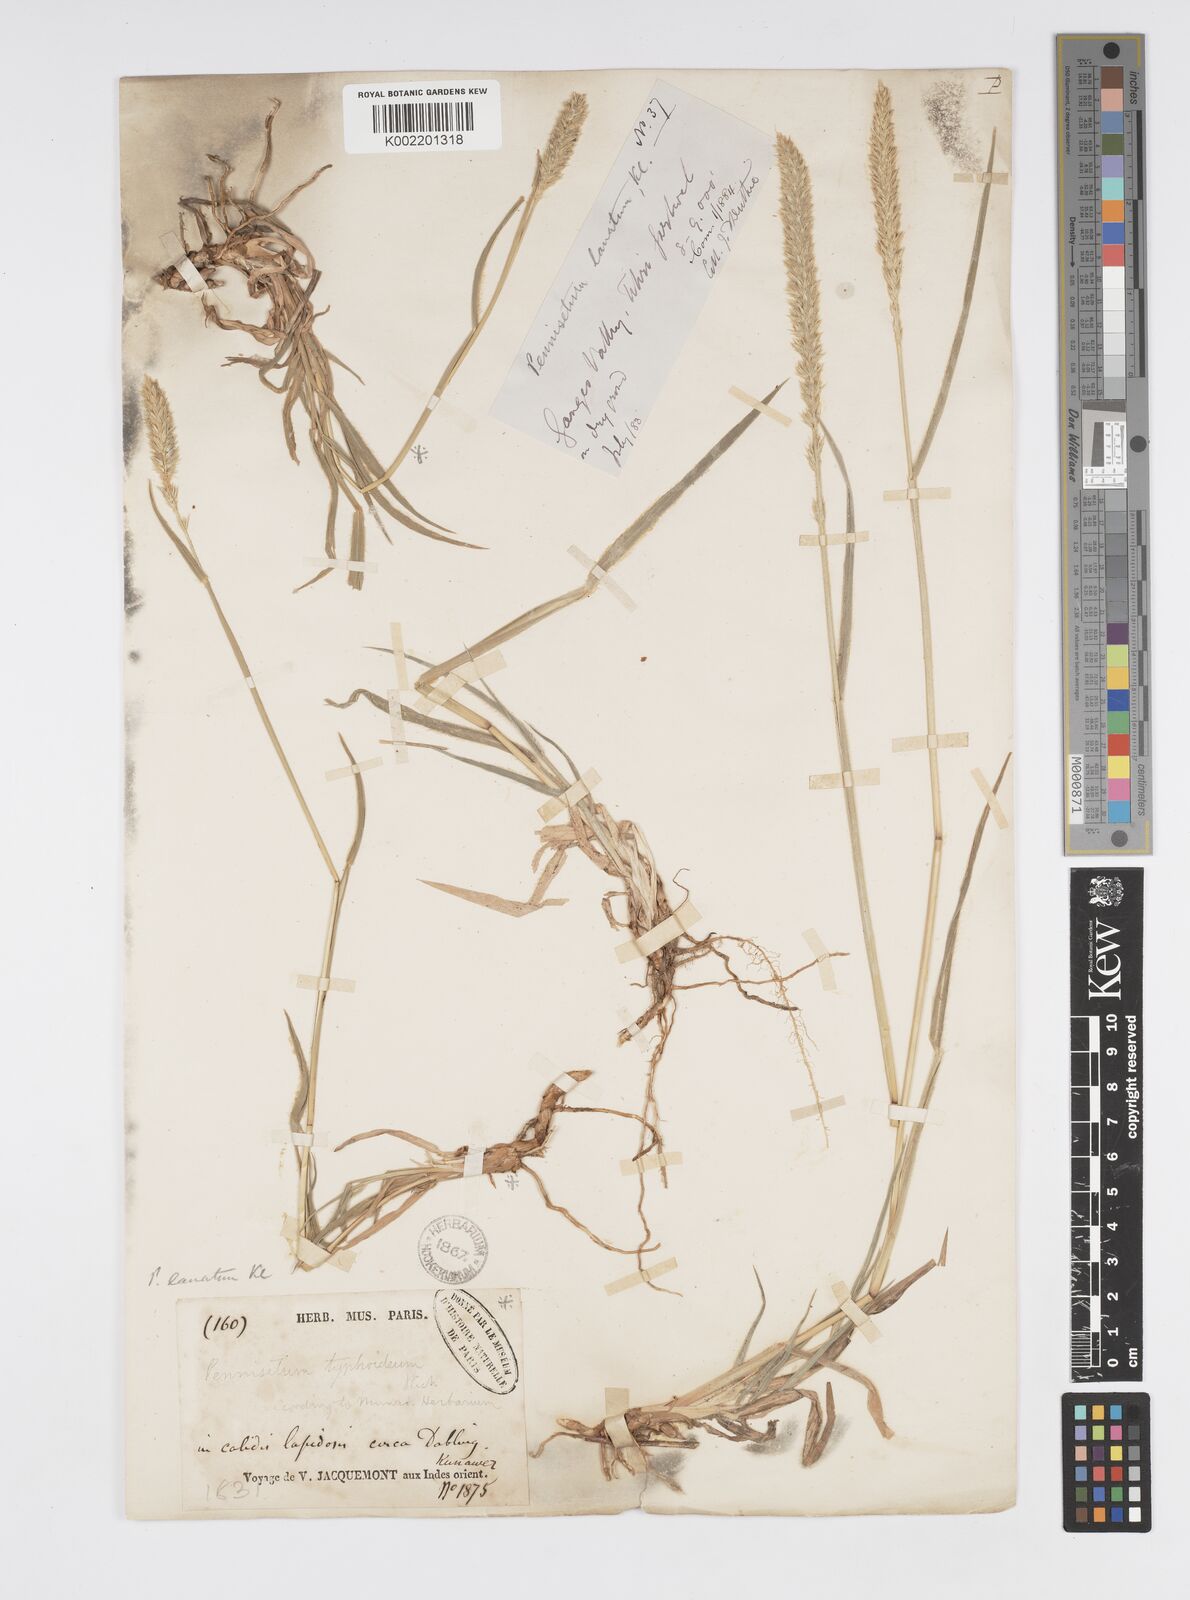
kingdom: Plantae
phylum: Tracheophyta
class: Liliopsida
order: Poales
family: Poaceae
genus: Cenchrus
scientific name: Cenchrus lanatus
